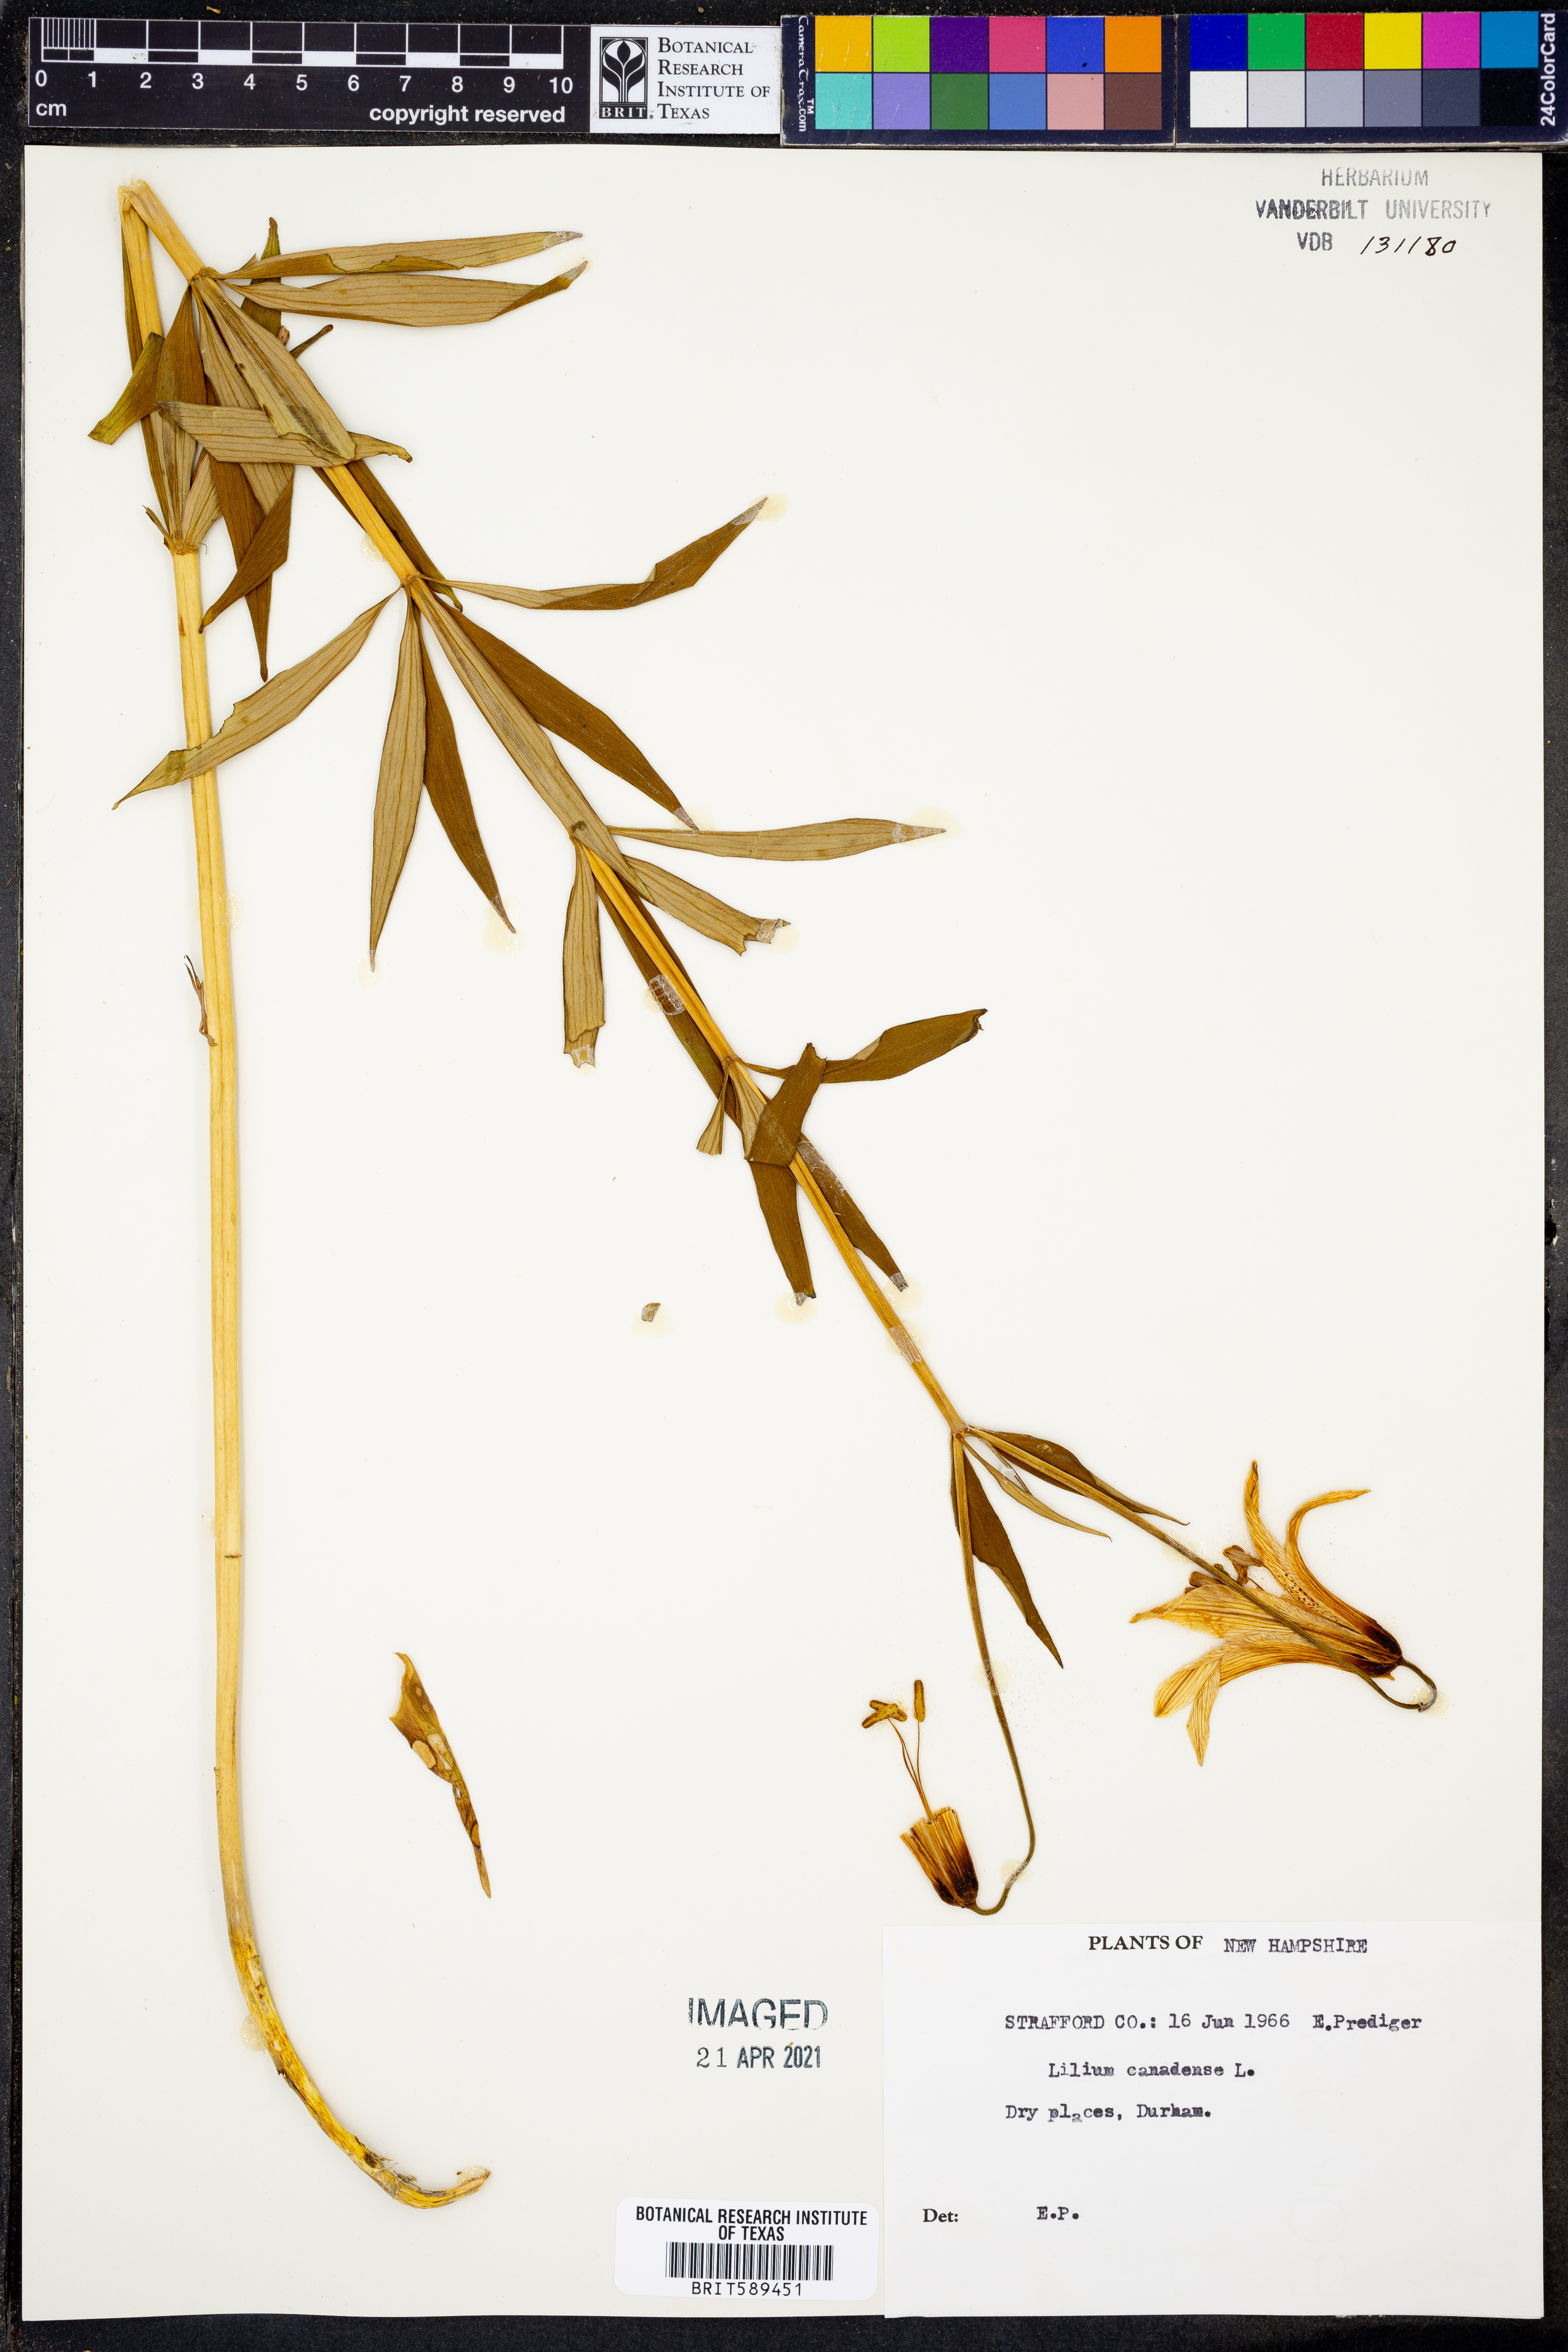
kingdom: Plantae
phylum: Tracheophyta
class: Liliopsida
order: Liliales
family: Liliaceae
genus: Lilium
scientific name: Lilium canadense
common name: Canada lily
